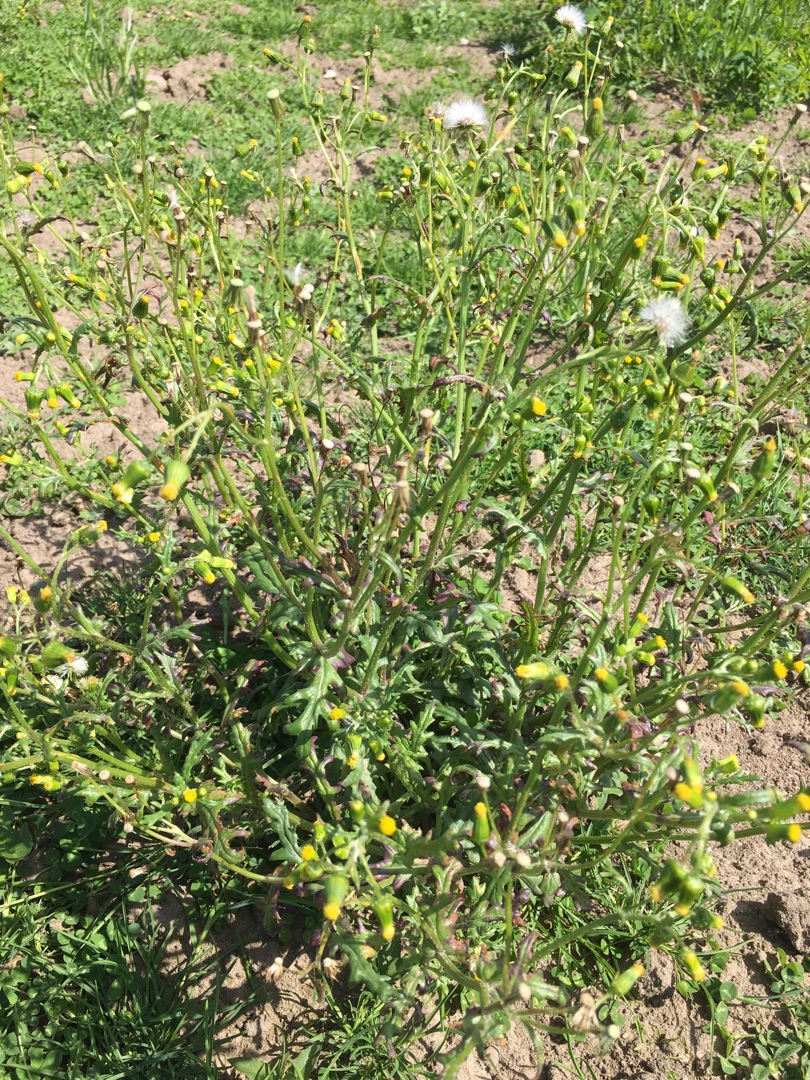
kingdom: Plantae
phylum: Tracheophyta
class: Magnoliopsida
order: Asterales
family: Asteraceae
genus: Senecio
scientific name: Senecio vulgaris
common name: Almindelig brandbæger
